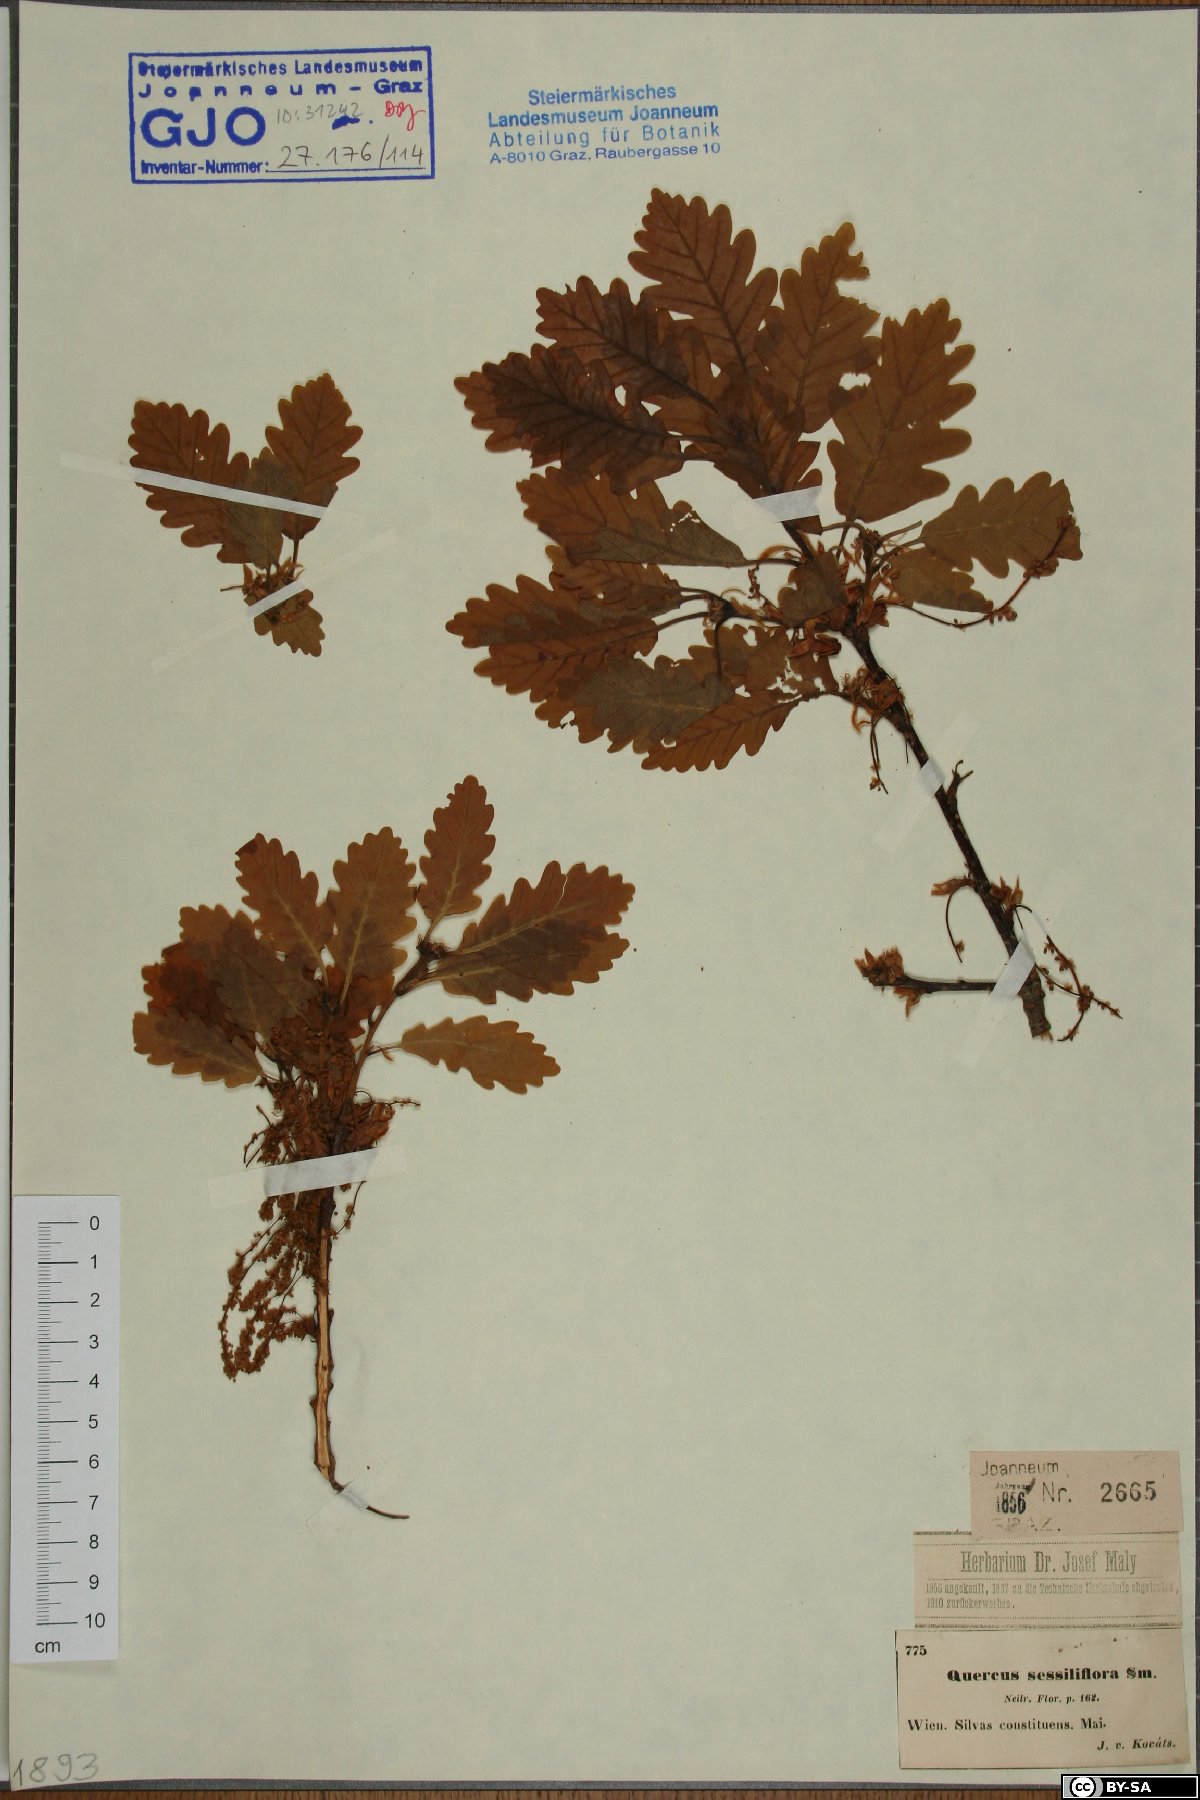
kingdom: Plantae
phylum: Tracheophyta
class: Magnoliopsida
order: Fagales
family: Fagaceae
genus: Quercus
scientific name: Quercus petraea
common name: Sessile oak
